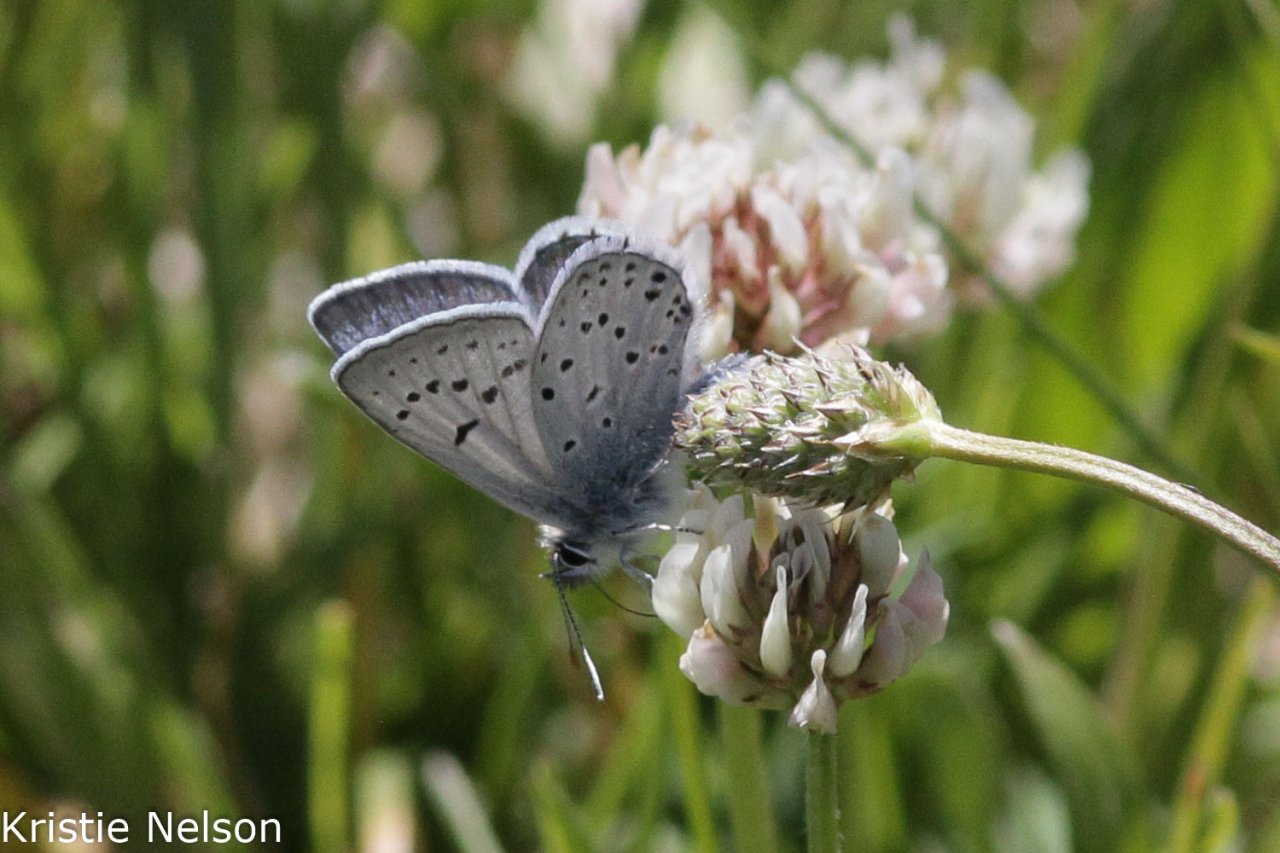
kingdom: Animalia
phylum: Arthropoda
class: Insecta
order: Lepidoptera
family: Lycaenidae
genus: Plebejus
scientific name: Plebejus saepiolus
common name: Greenish Blue
